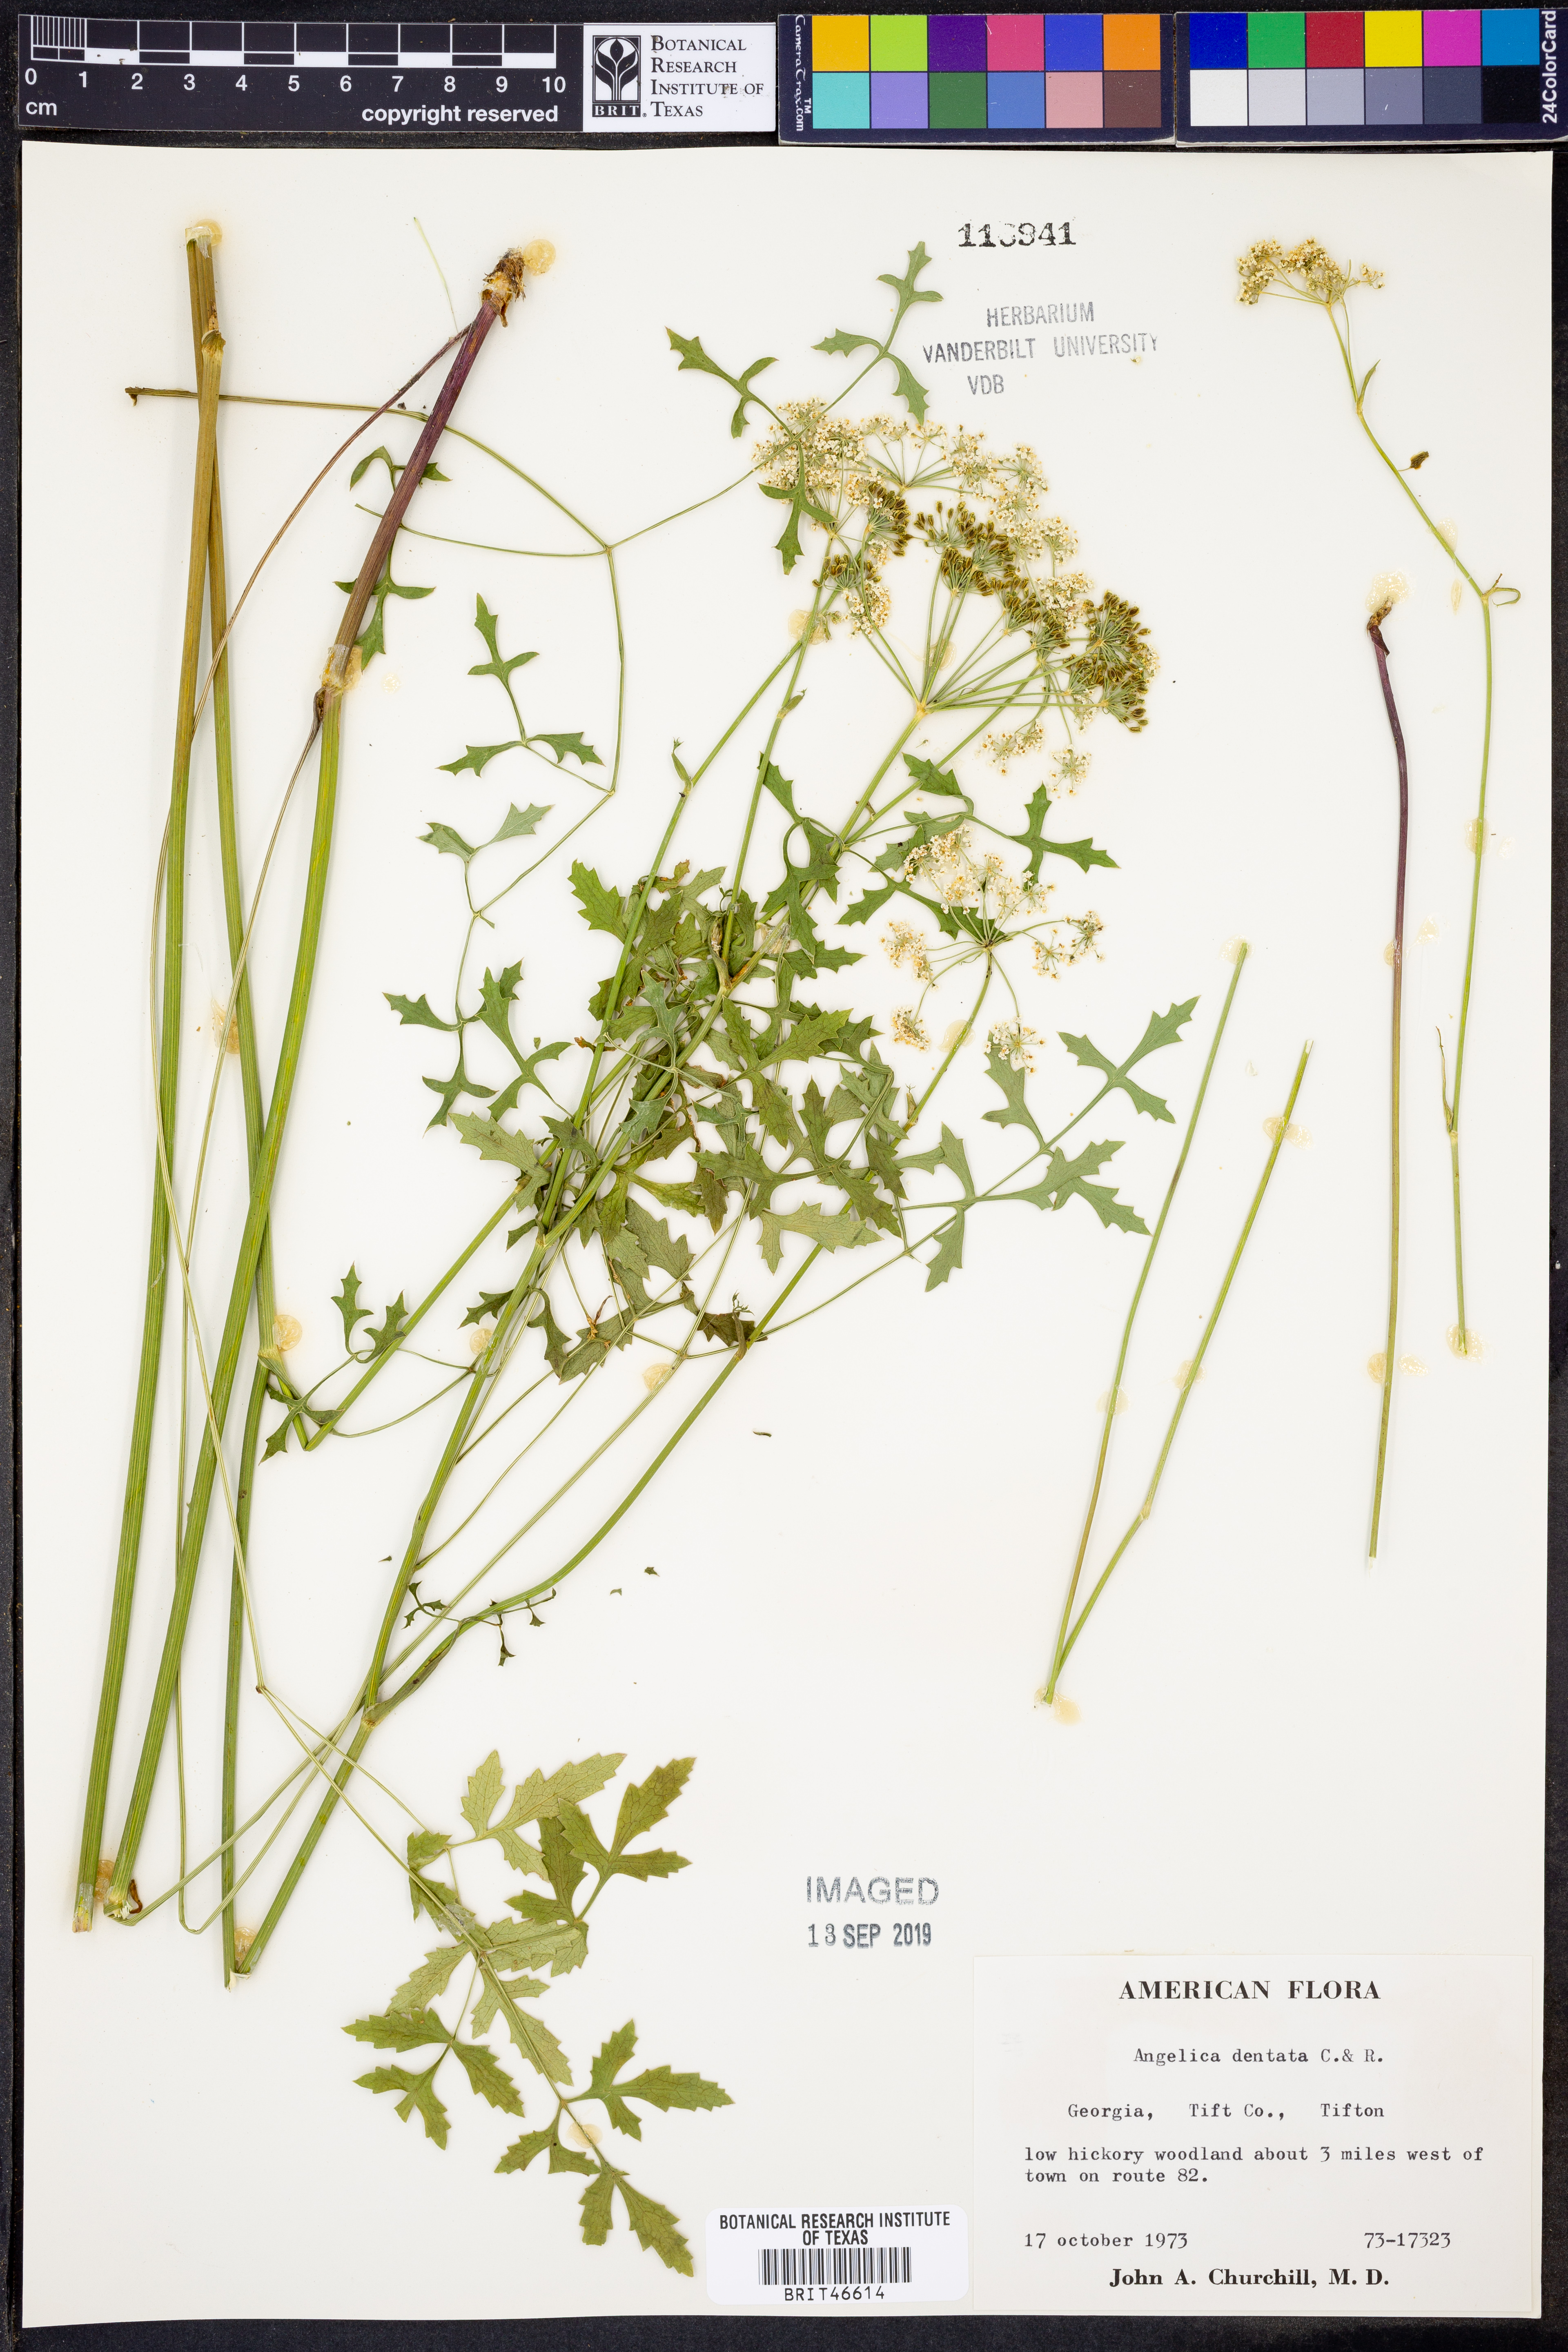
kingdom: Plantae
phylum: Tracheophyta
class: Magnoliopsida
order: Apiales
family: Apiaceae
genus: Angelica
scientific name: Angelica venenosa
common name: Hairy angelica
